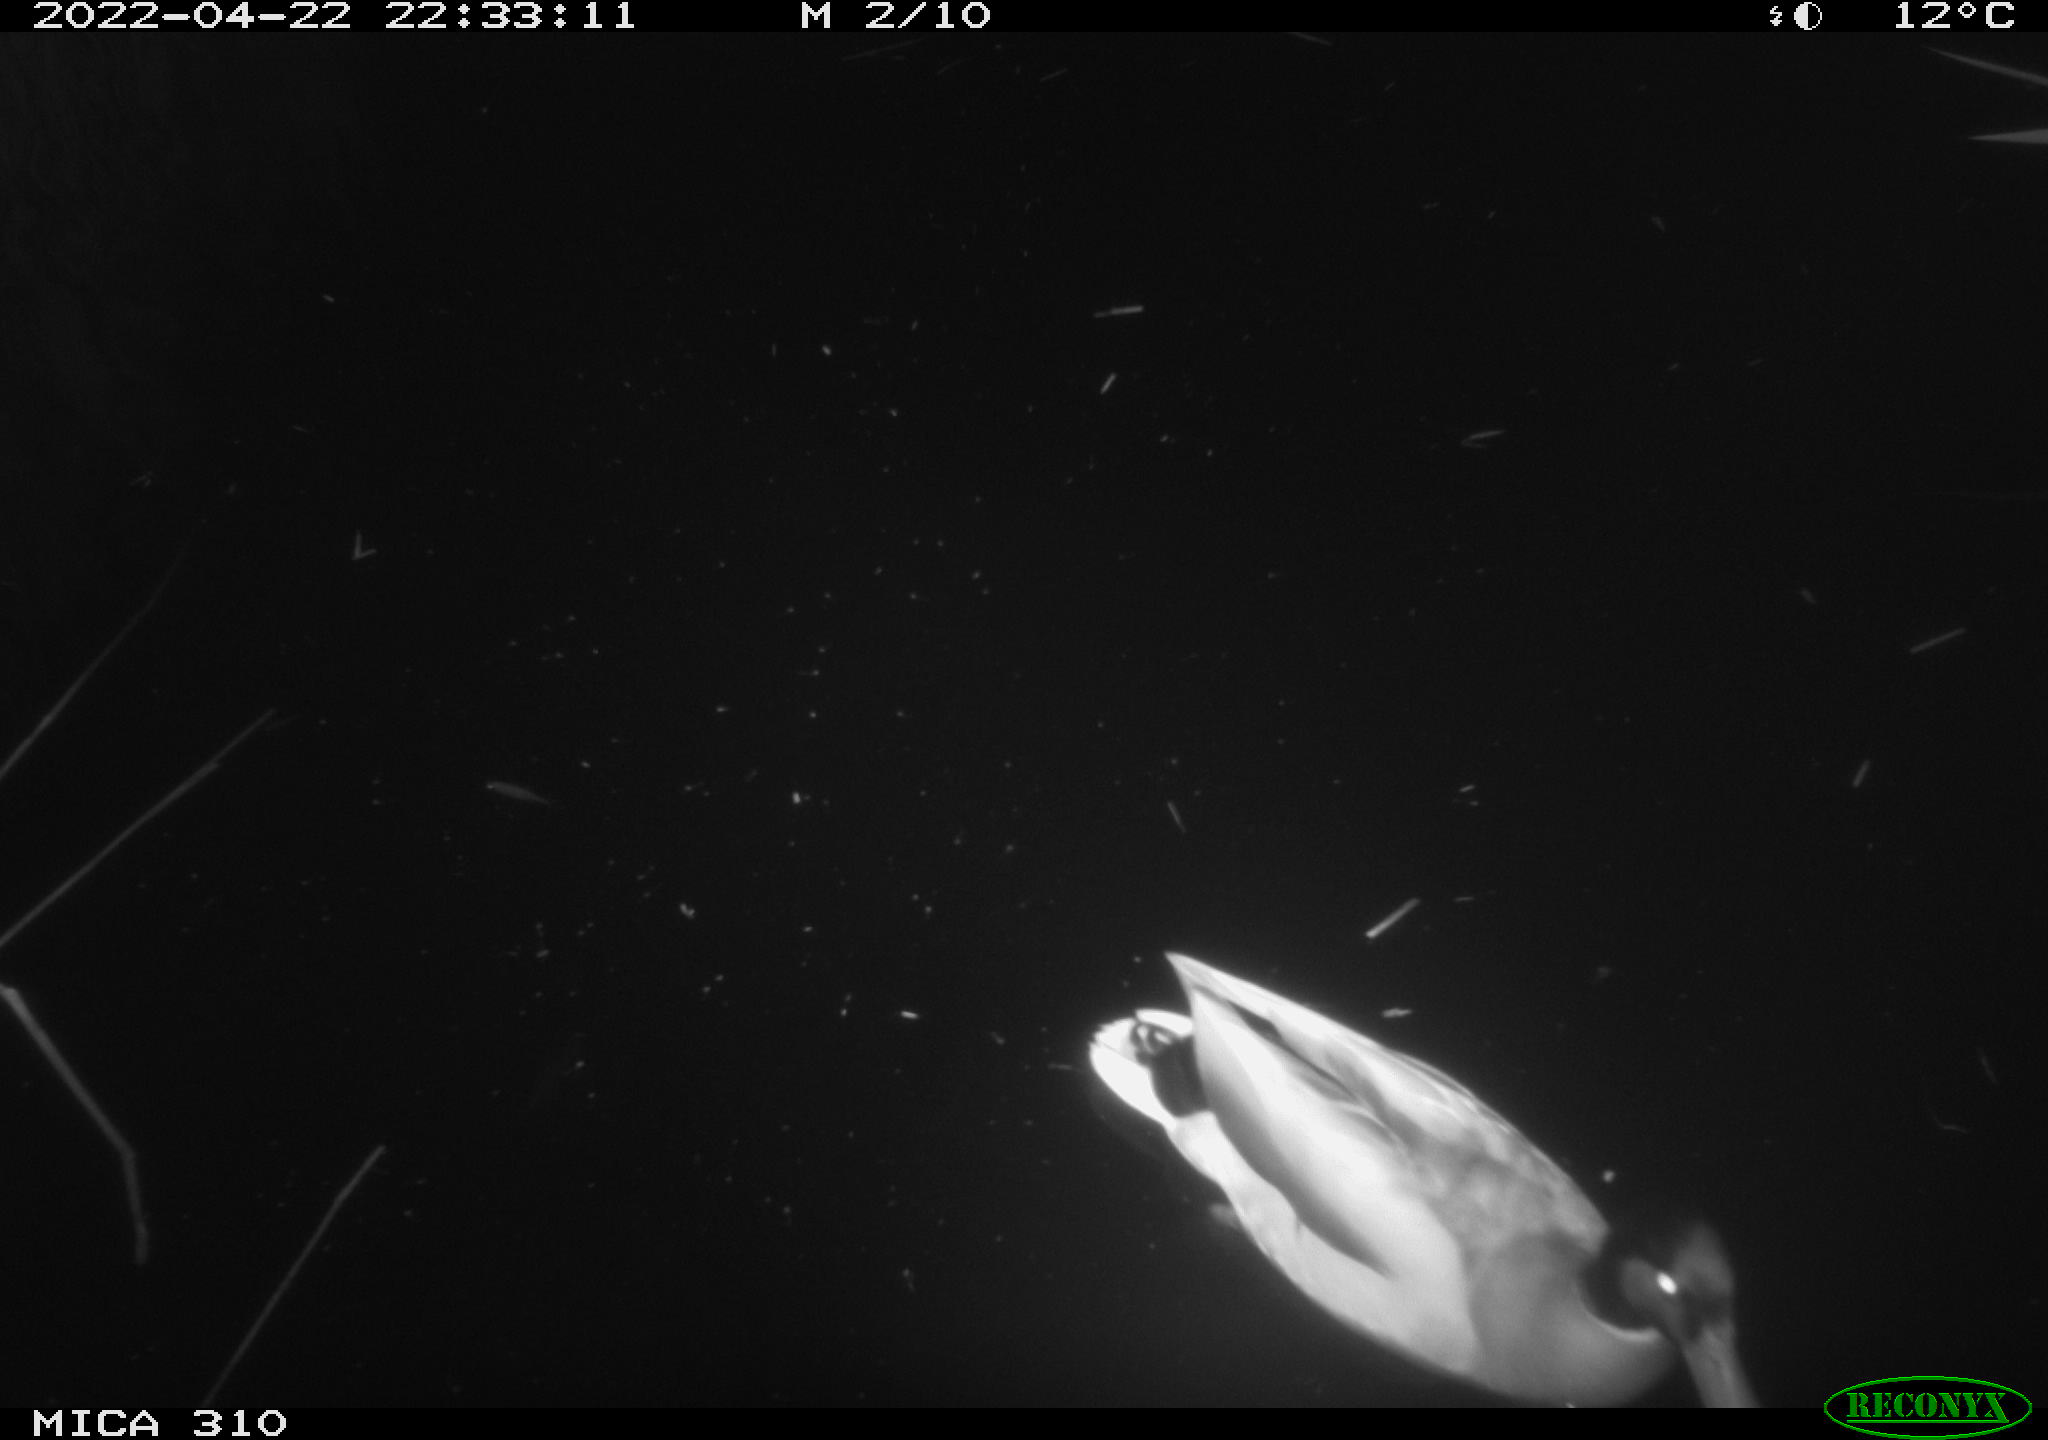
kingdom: Animalia
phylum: Chordata
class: Aves
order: Anseriformes
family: Anatidae
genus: Anas
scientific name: Anas platyrhynchos
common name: Mallard
